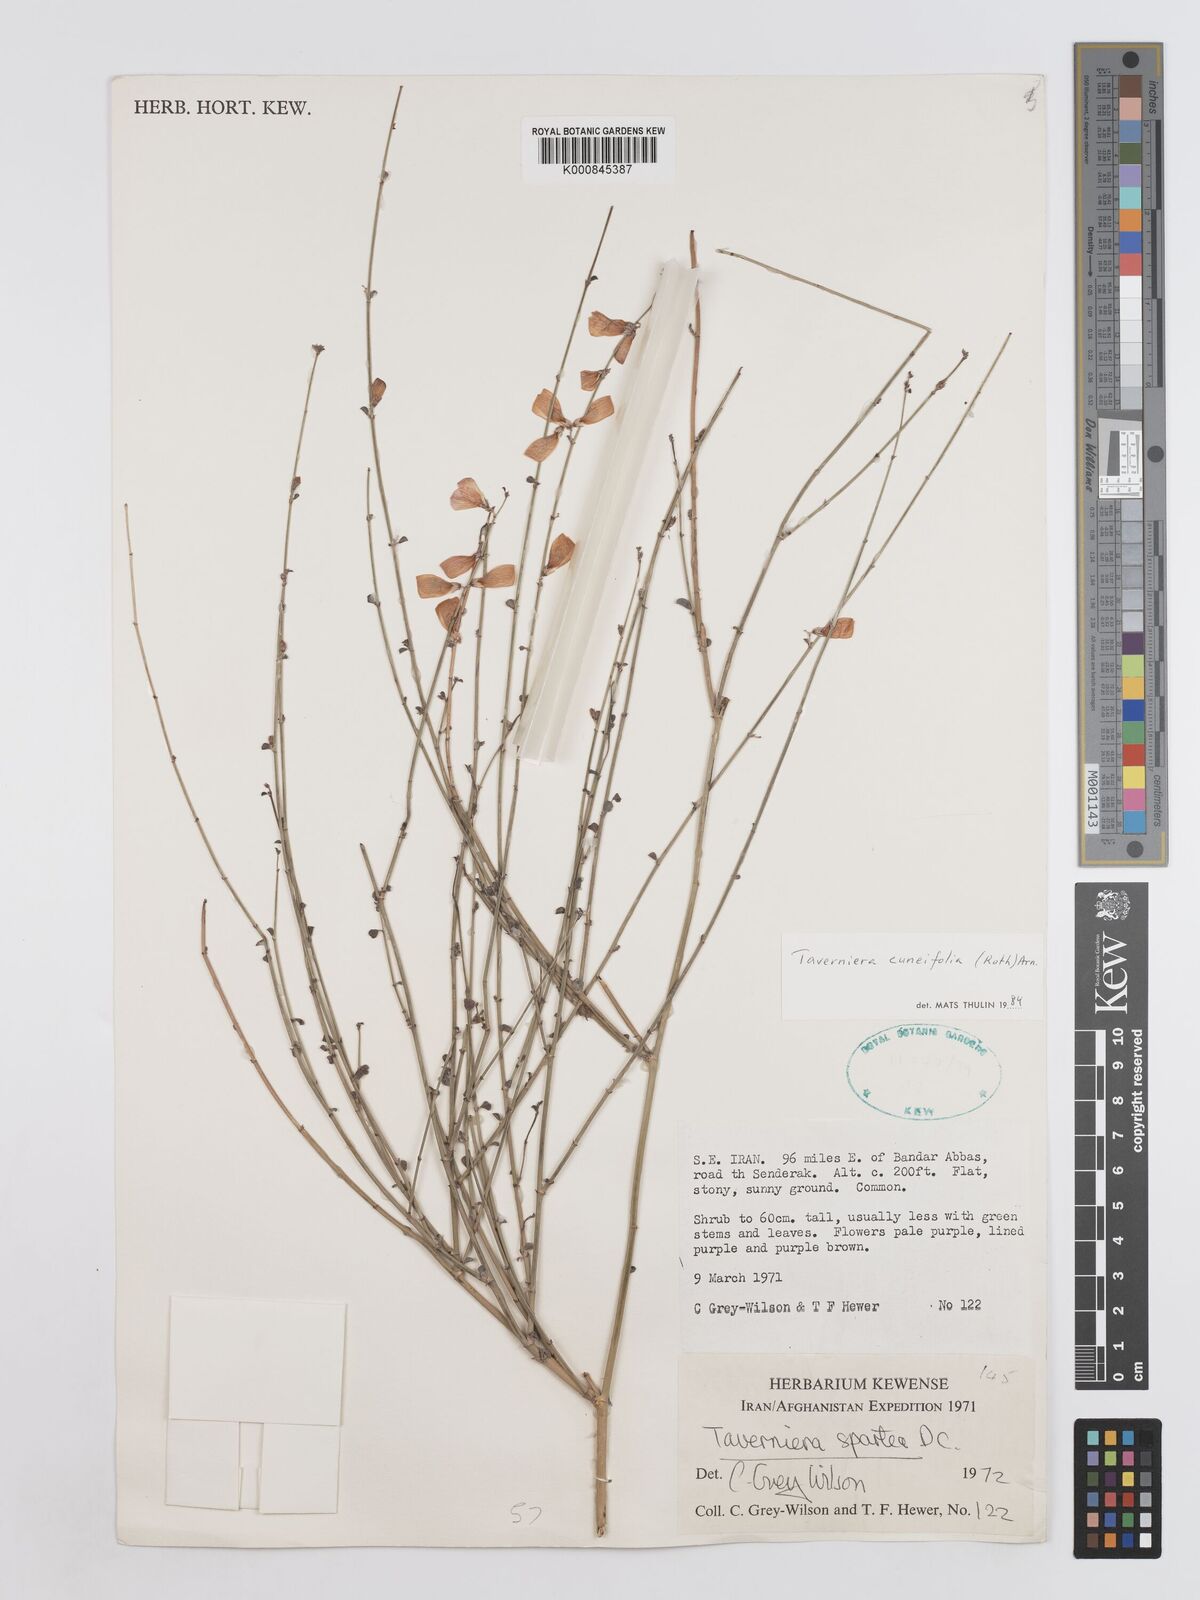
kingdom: Plantae
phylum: Tracheophyta
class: Magnoliopsida
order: Fabales
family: Fabaceae
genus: Taverniera
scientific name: Taverniera
